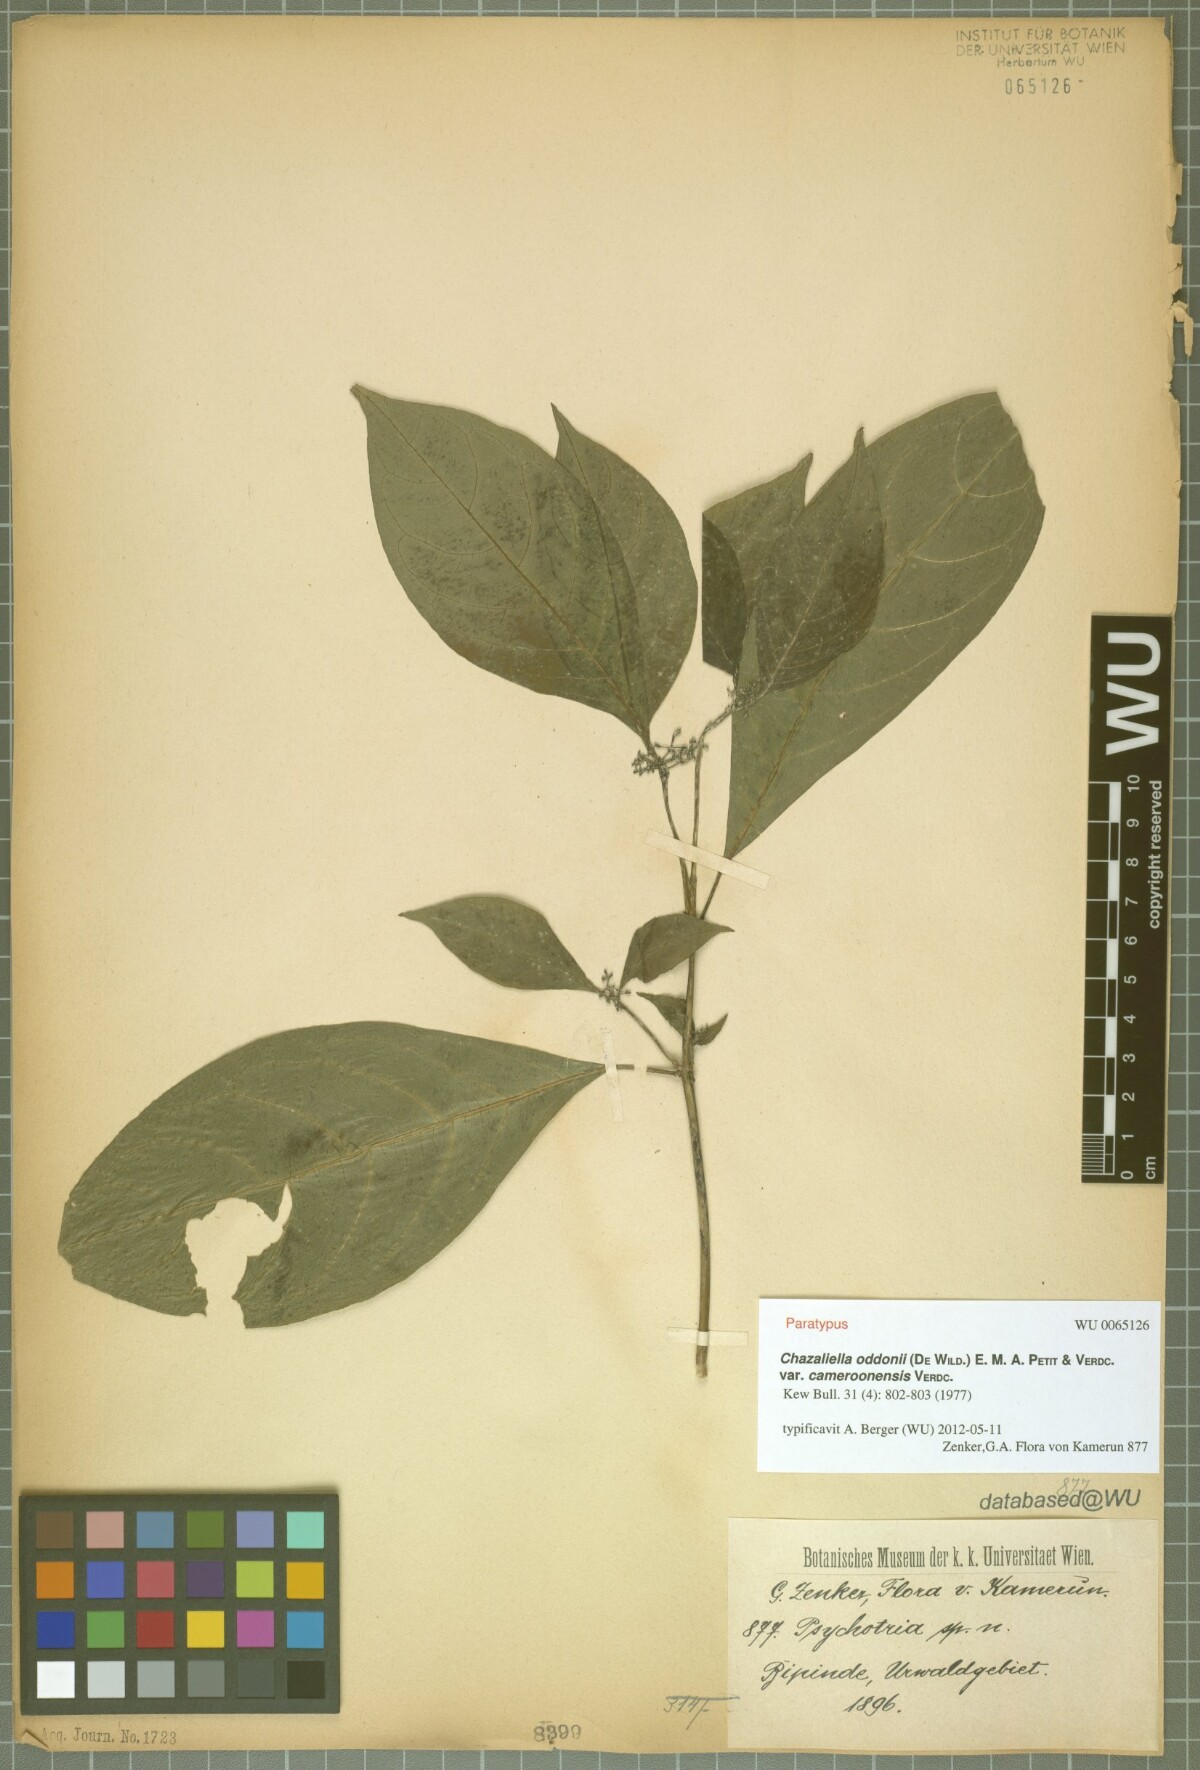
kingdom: Plantae
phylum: Tracheophyta
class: Magnoliopsida
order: Gentianales
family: Rubiaceae
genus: Eumachia
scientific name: Eumachia oddonii
